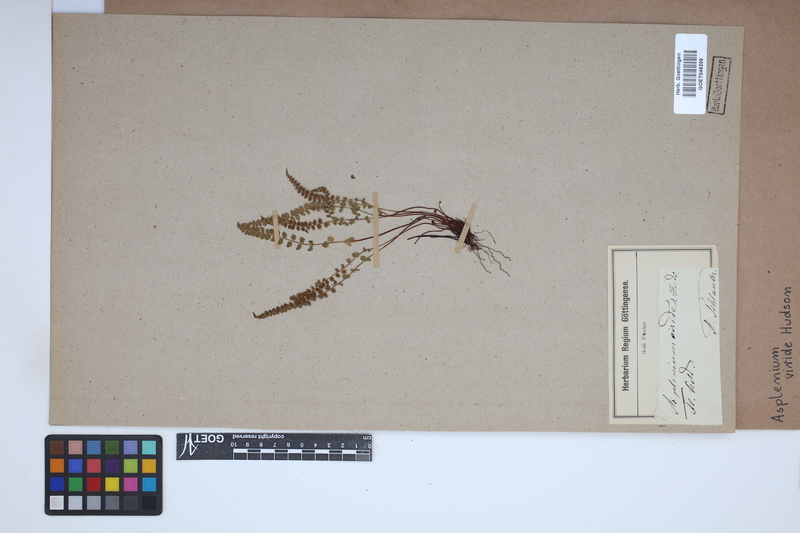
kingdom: Plantae
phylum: Tracheophyta
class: Polypodiopsida
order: Polypodiales
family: Aspleniaceae
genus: Asplenium
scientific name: Asplenium viride
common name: Green spleenwort
